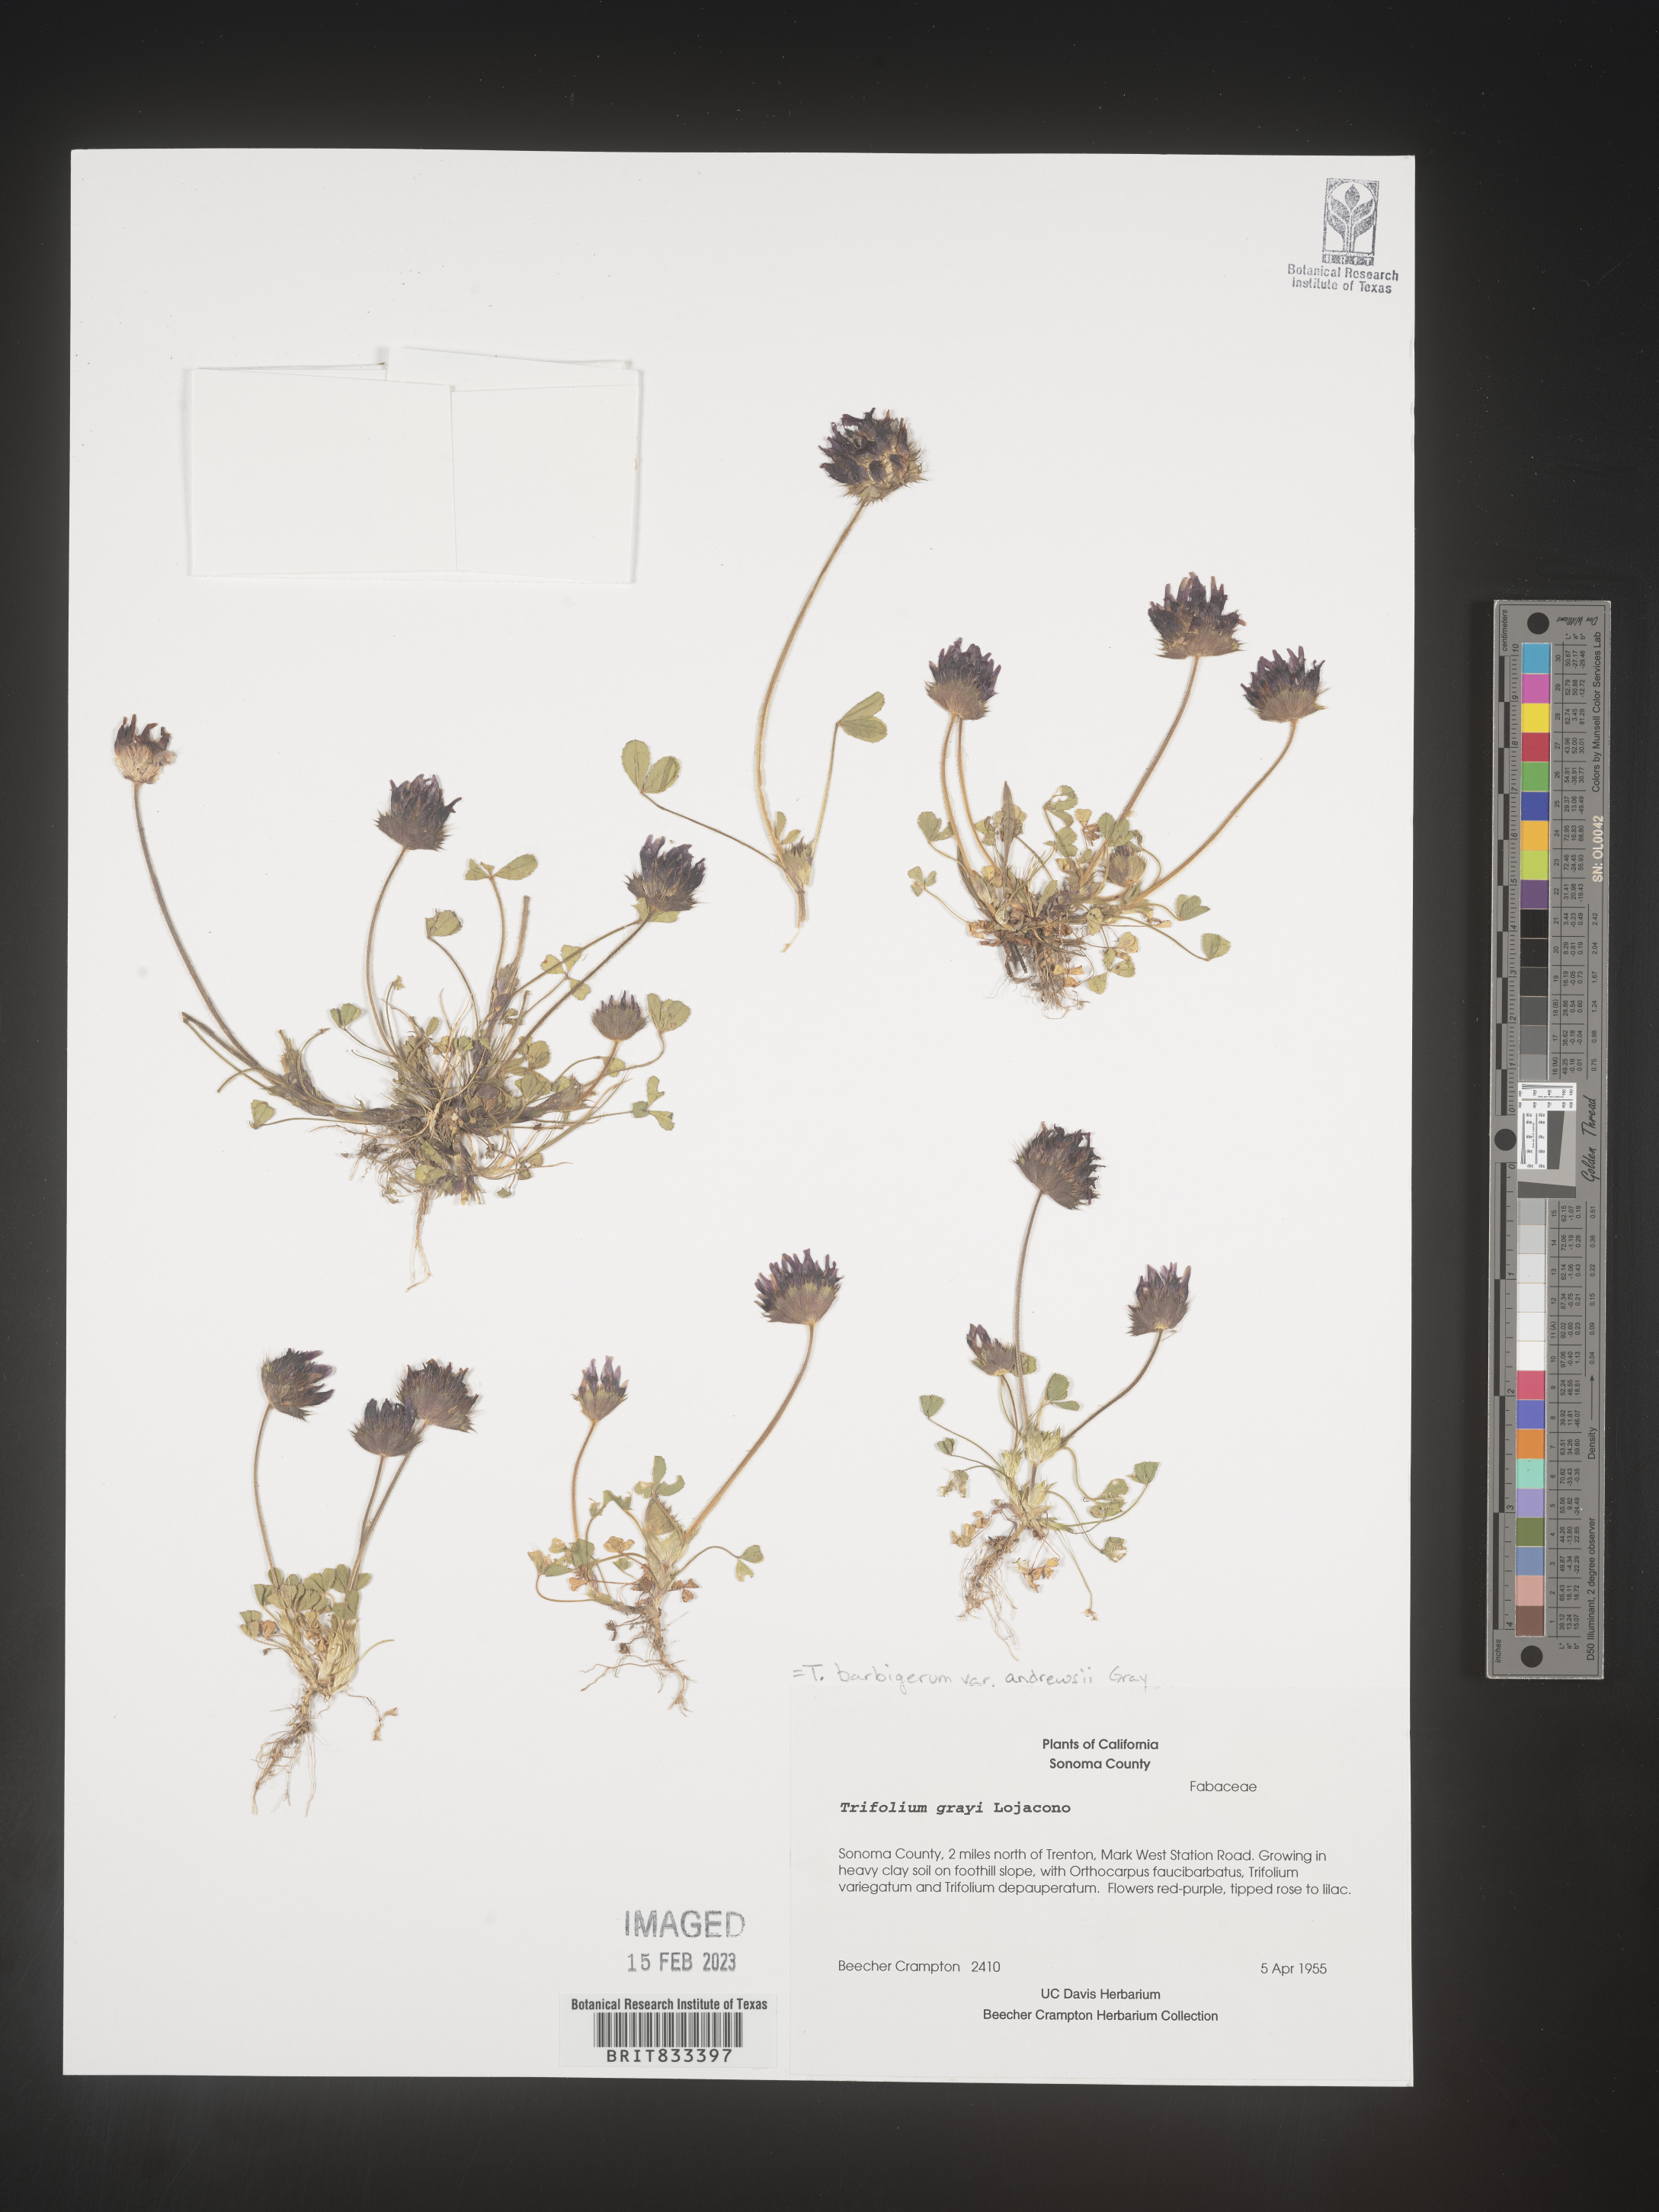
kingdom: Plantae
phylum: Tracheophyta
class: Magnoliopsida
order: Fabales
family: Fabaceae
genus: Trifolium
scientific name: Trifolium
